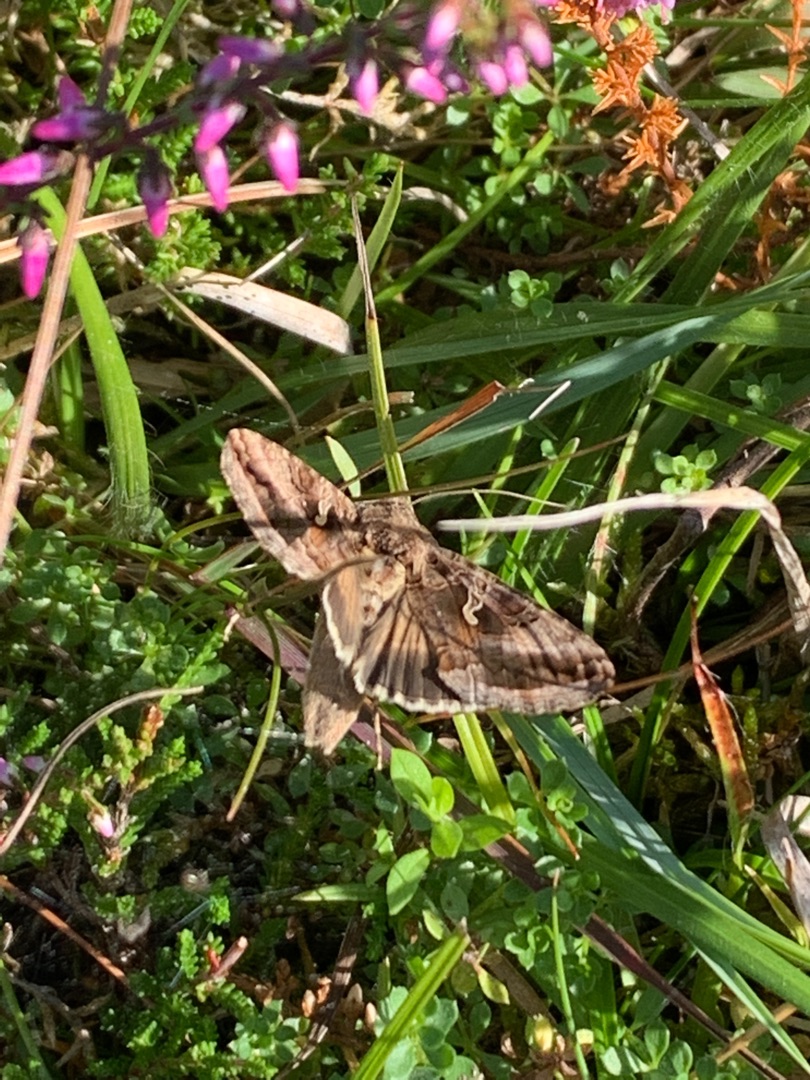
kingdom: Animalia
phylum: Arthropoda
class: Insecta
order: Lepidoptera
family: Noctuidae
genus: Autographa
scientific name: Autographa gamma
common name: Gammaugle
